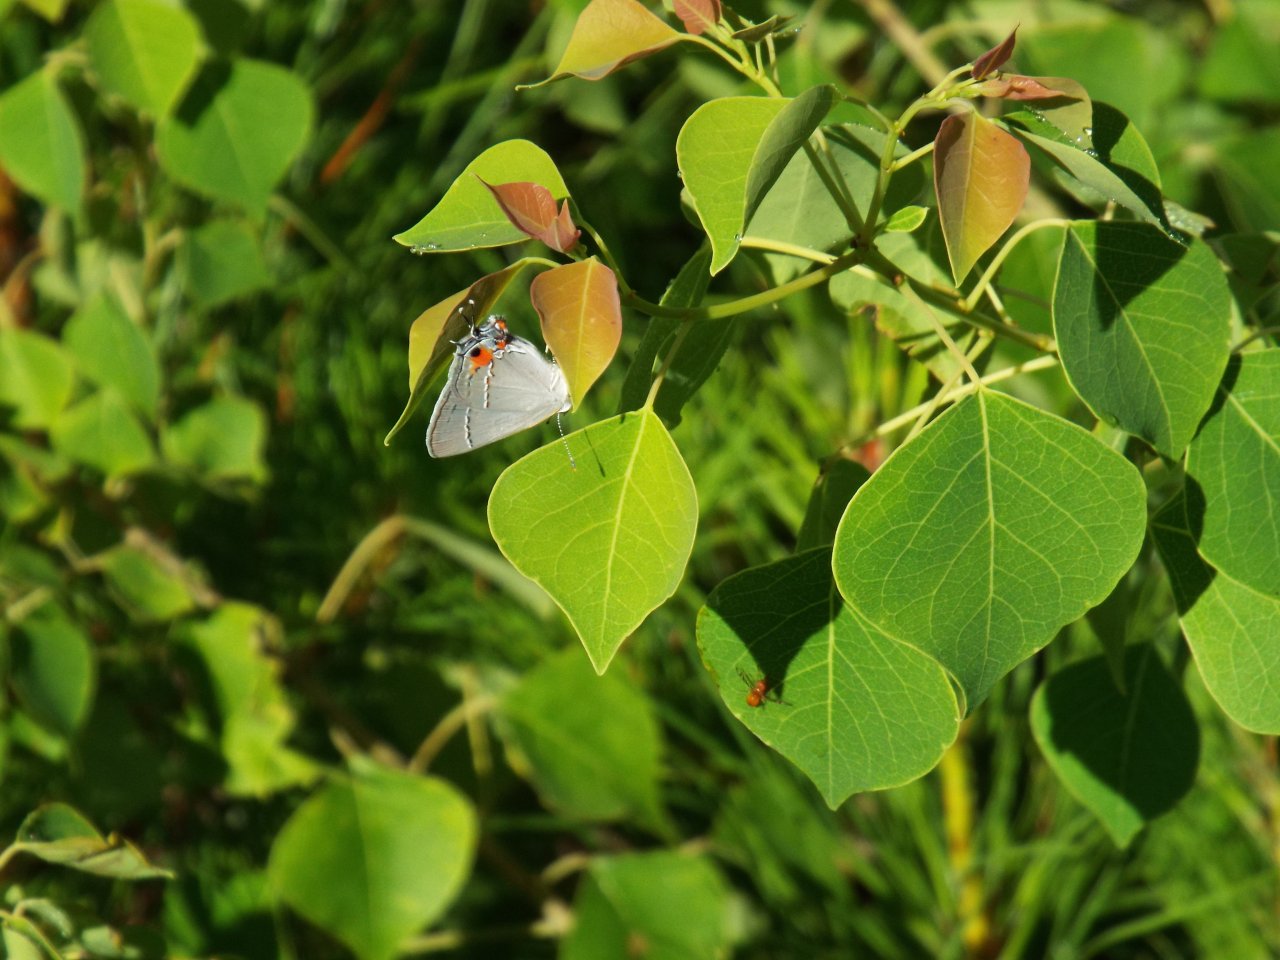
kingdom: Animalia
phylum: Arthropoda
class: Insecta
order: Lepidoptera
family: Lycaenidae
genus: Strymon
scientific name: Strymon melinus
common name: Gray Hairstreak
